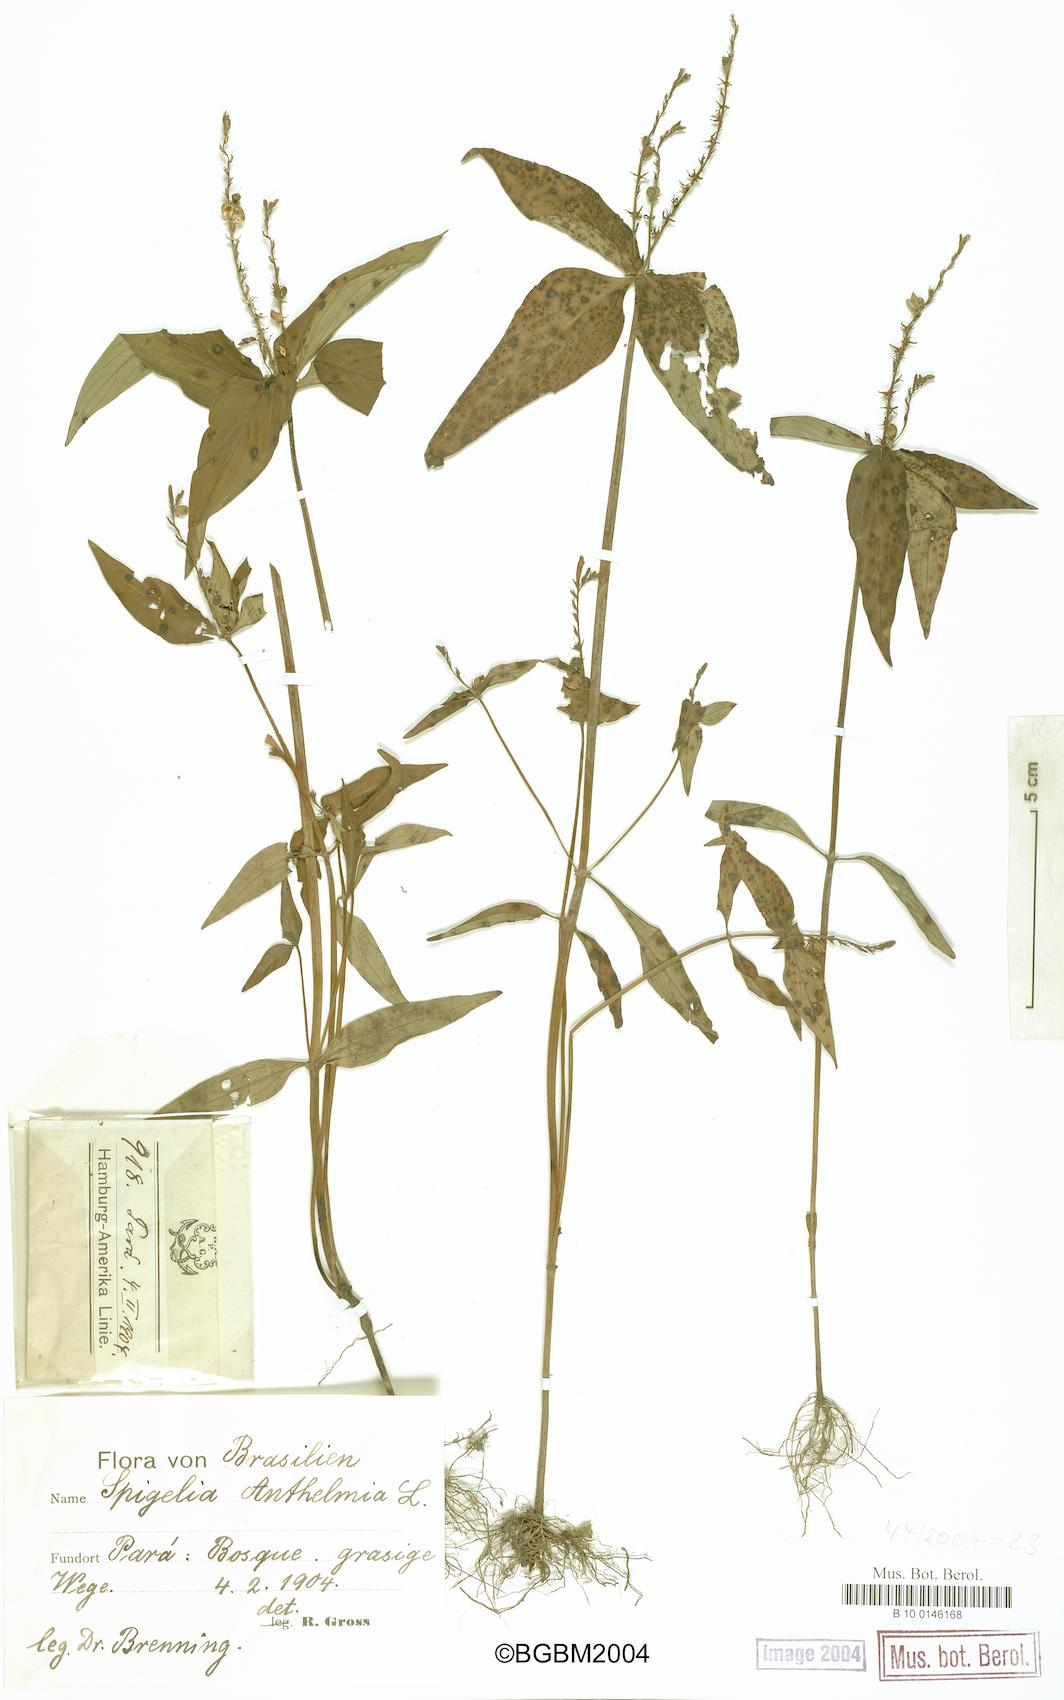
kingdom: Plantae
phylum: Tracheophyta
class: Magnoliopsida
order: Gentianales
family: Loganiaceae
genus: Spigelia
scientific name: Spigelia anthelmia
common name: West indian-pink
